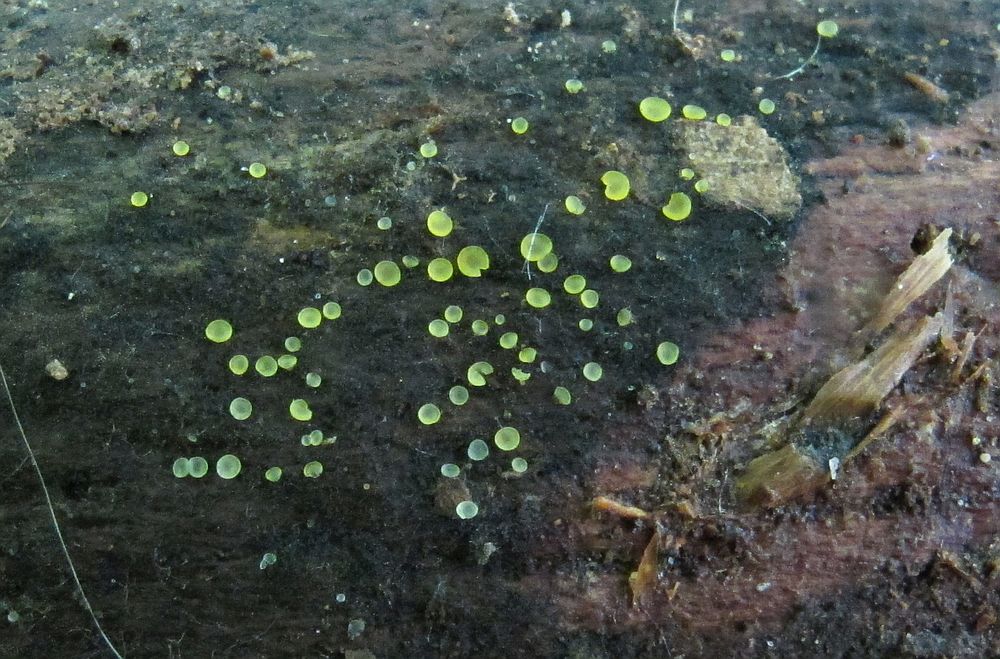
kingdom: Fungi
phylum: Ascomycota
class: Orbiliomycetes
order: Orbiliales
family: Orbiliaceae
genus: Orbilia
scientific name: Orbilia xanthostigma
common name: krumsporet voksskive
